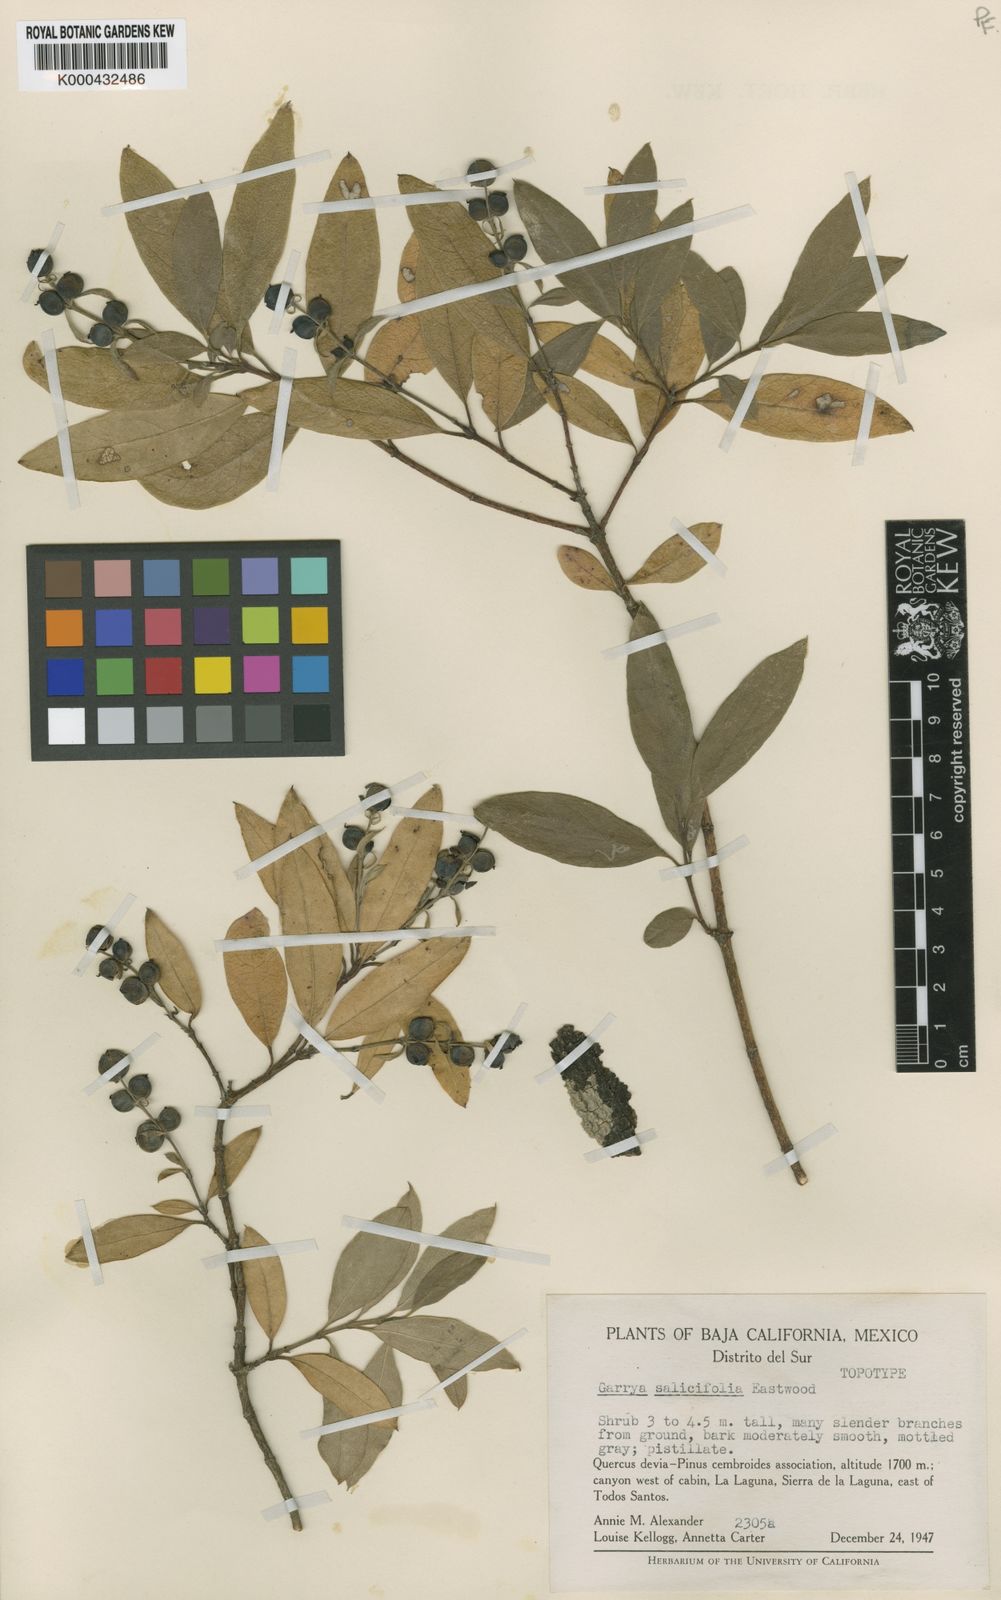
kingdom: Plantae
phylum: Tracheophyta
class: Magnoliopsida
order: Garryales
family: Garryaceae
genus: Garrya
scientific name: Garrya salicifolia
